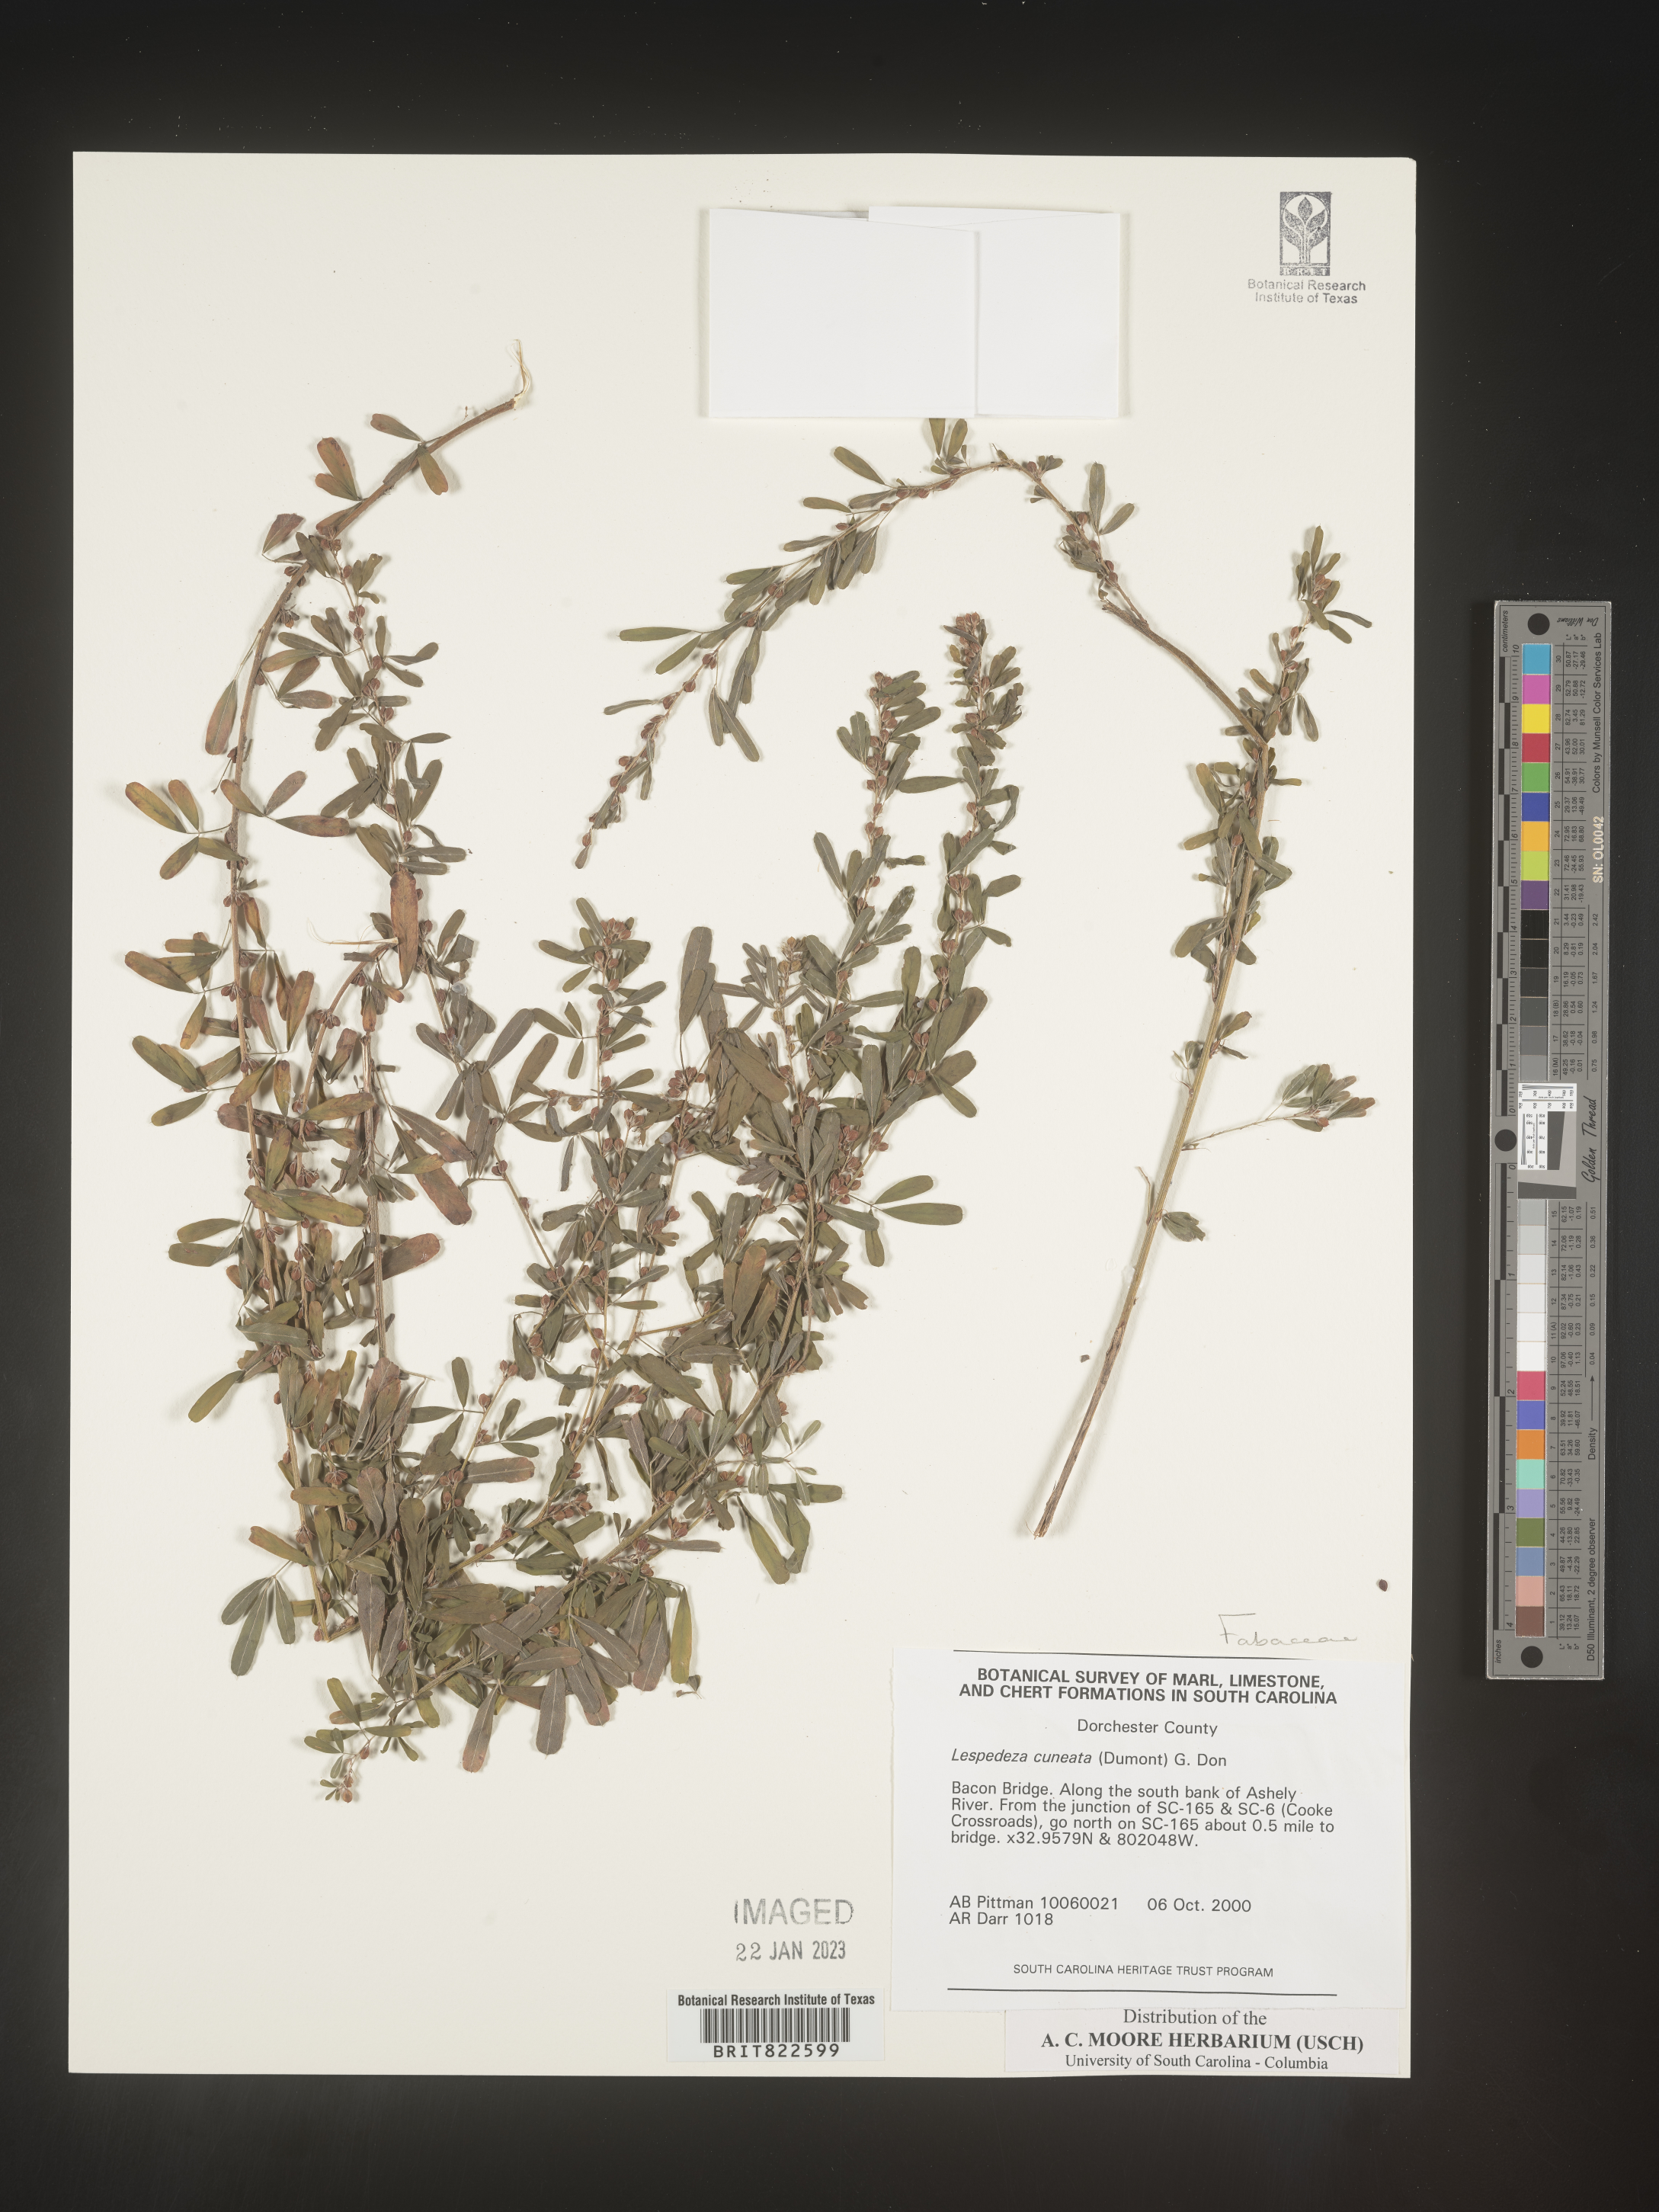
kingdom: Plantae
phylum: Tracheophyta
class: Magnoliopsida
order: Fabales
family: Fabaceae
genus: Lespedeza
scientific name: Lespedeza cuneata
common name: Chinese bush-clover
